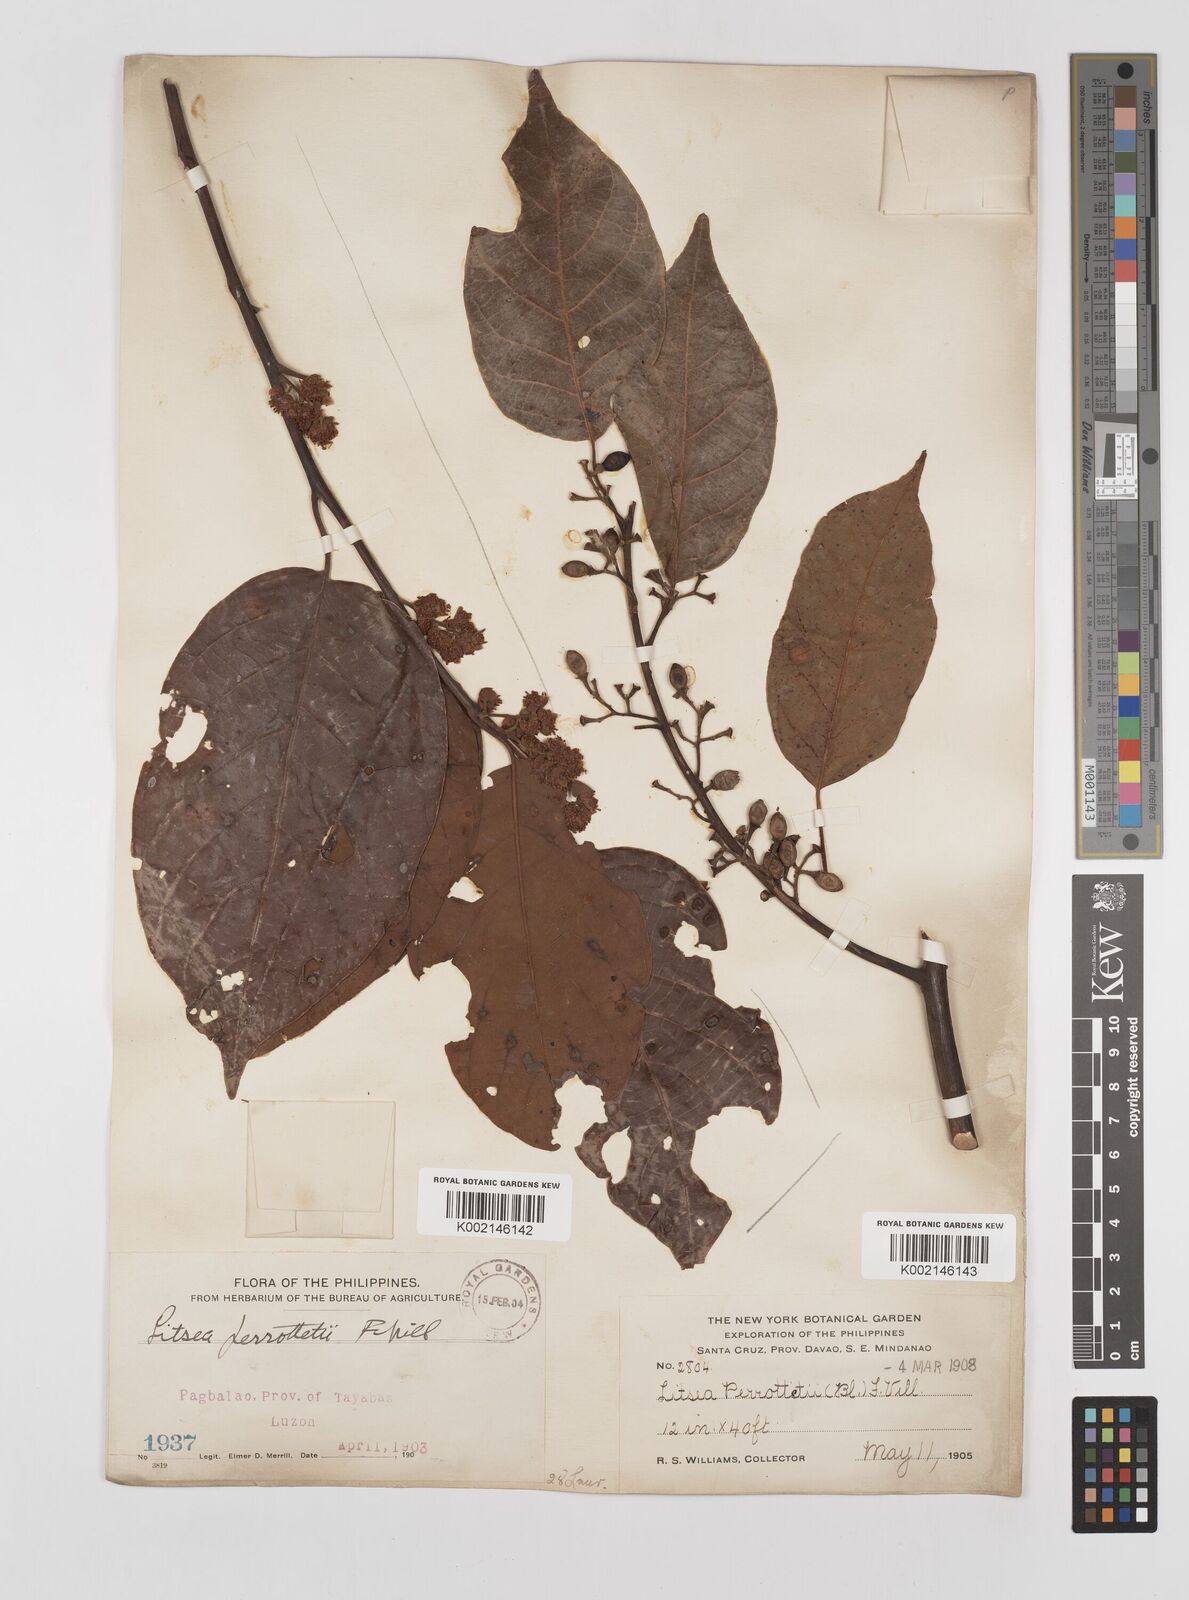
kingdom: Plantae
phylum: Tracheophyta
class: Magnoliopsida
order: Laurales
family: Lauraceae
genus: Litsea
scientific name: Litsea cordata
